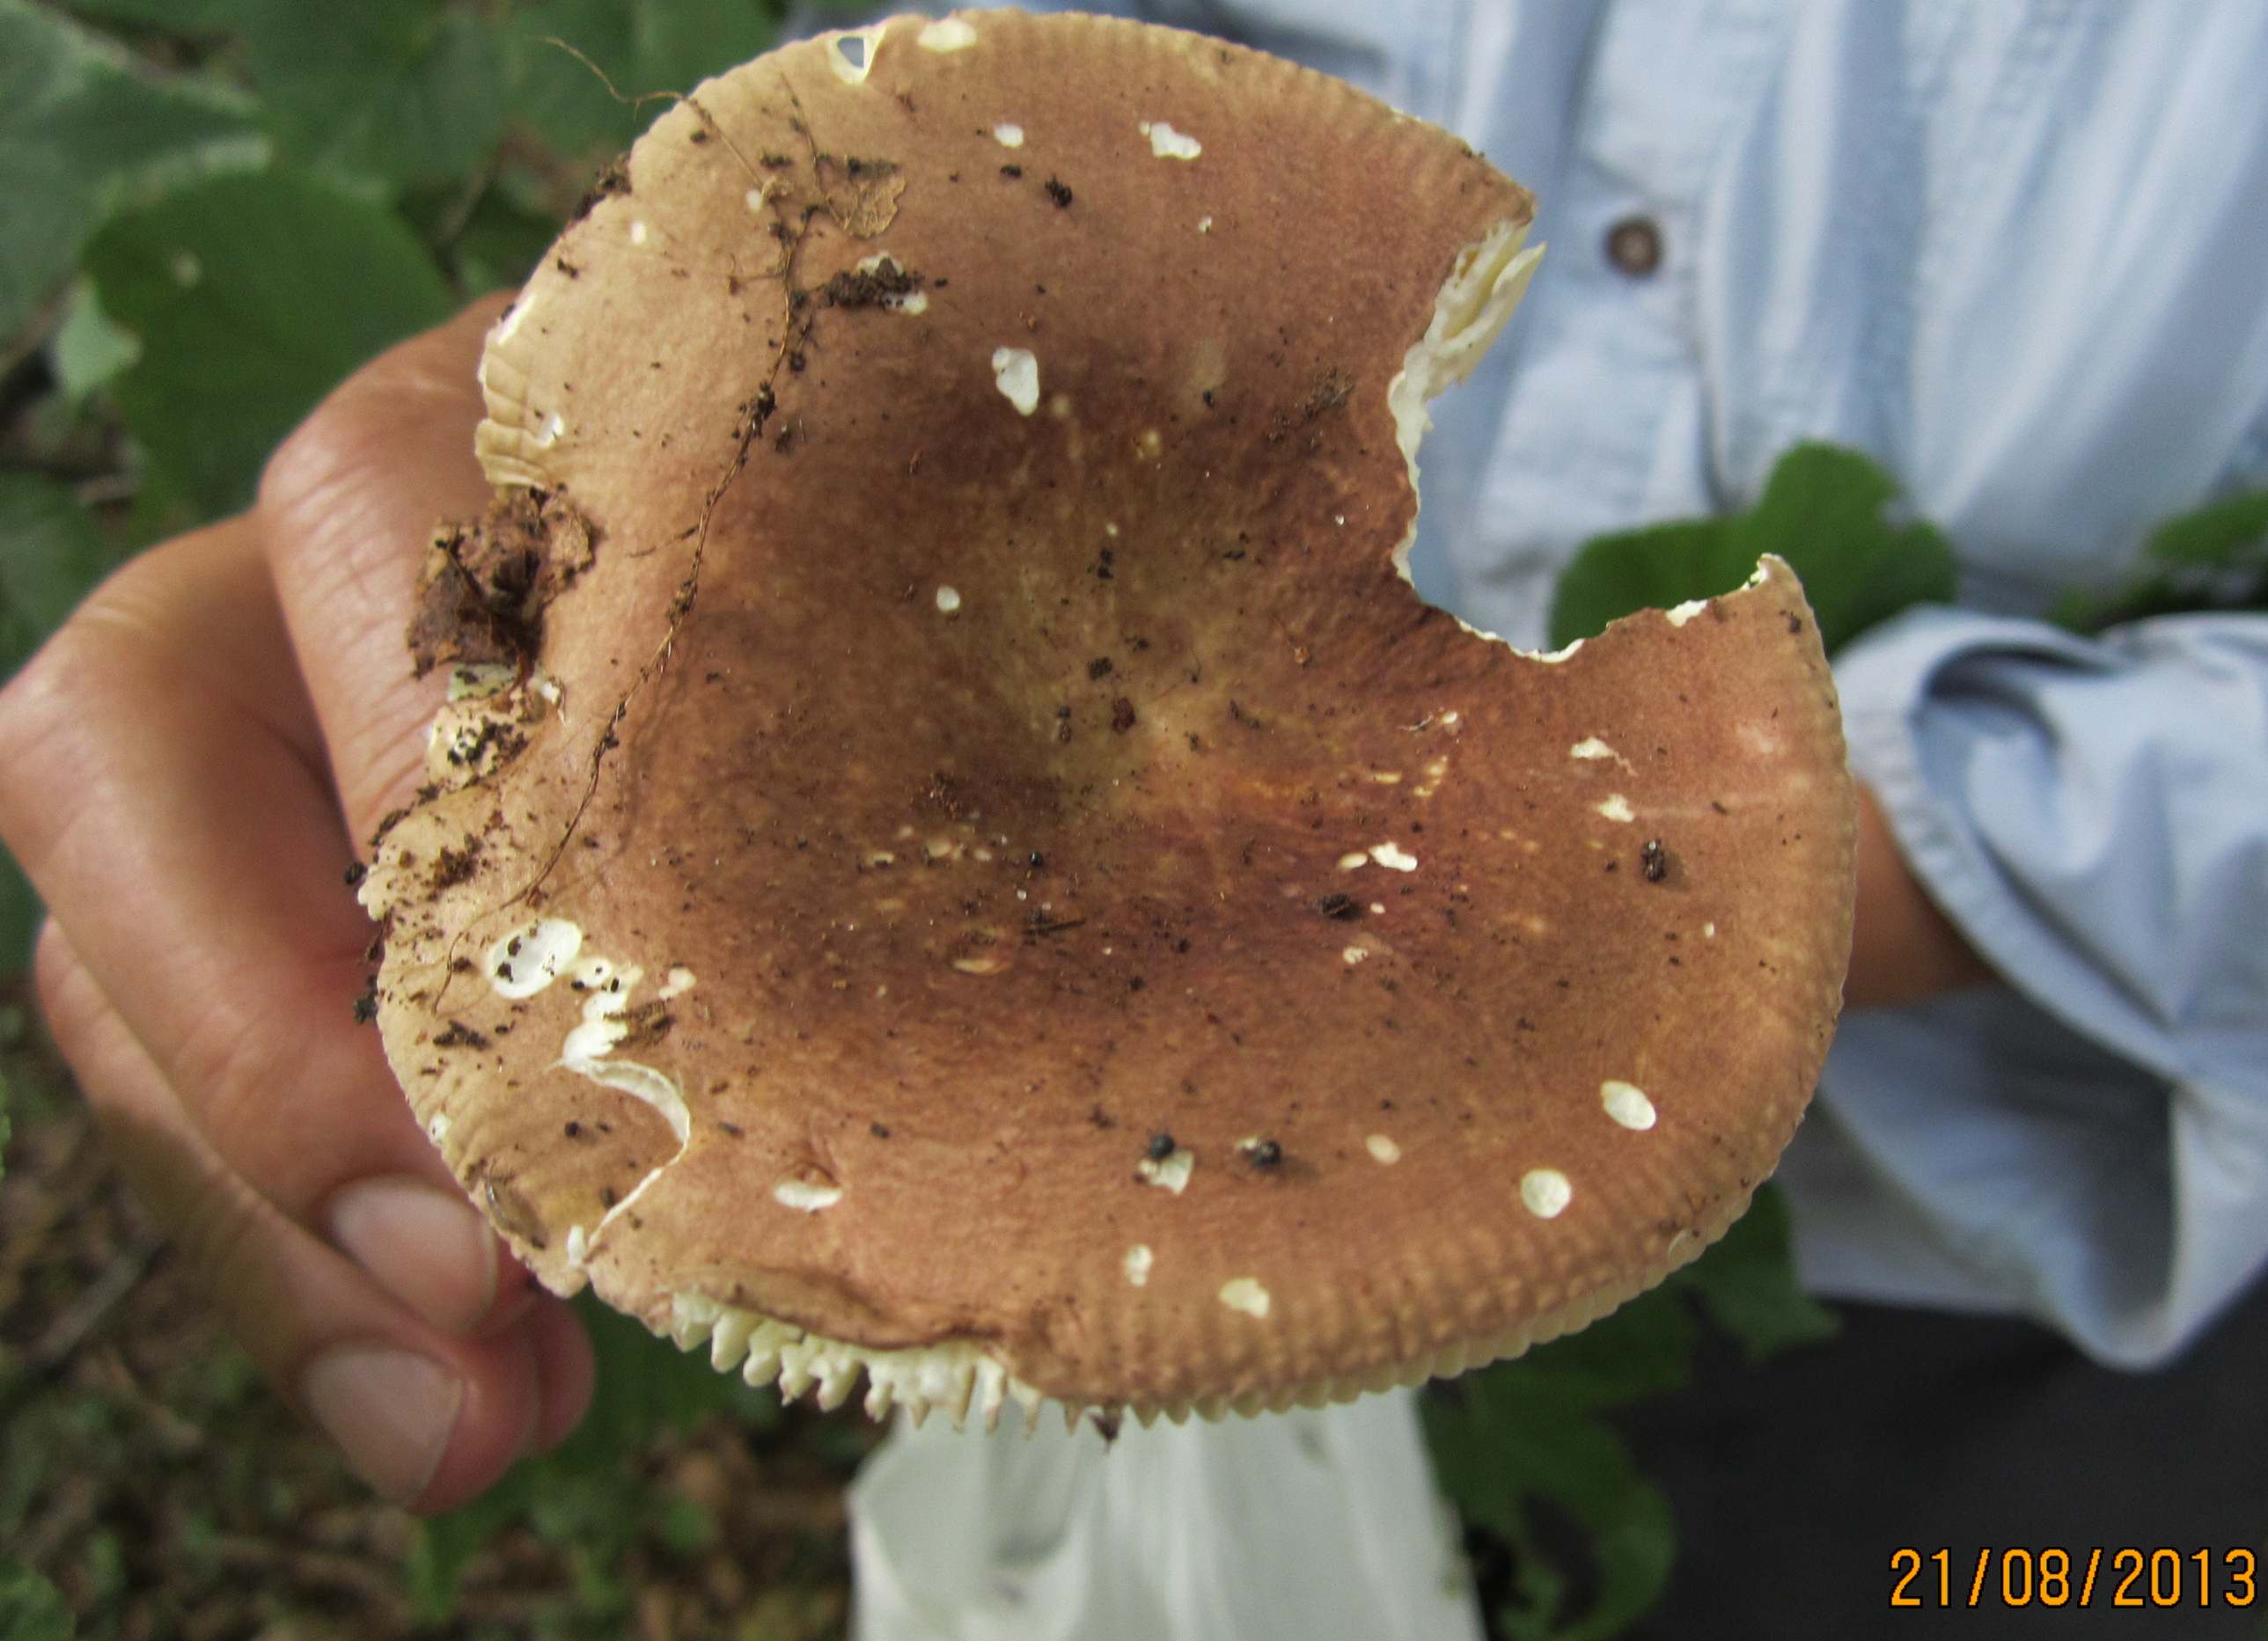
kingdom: Fungi
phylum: Basidiomycota
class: Agaricomycetes
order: Russulales
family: Russulaceae
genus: Russula
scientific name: Russula olivacea
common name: stor skørhat
